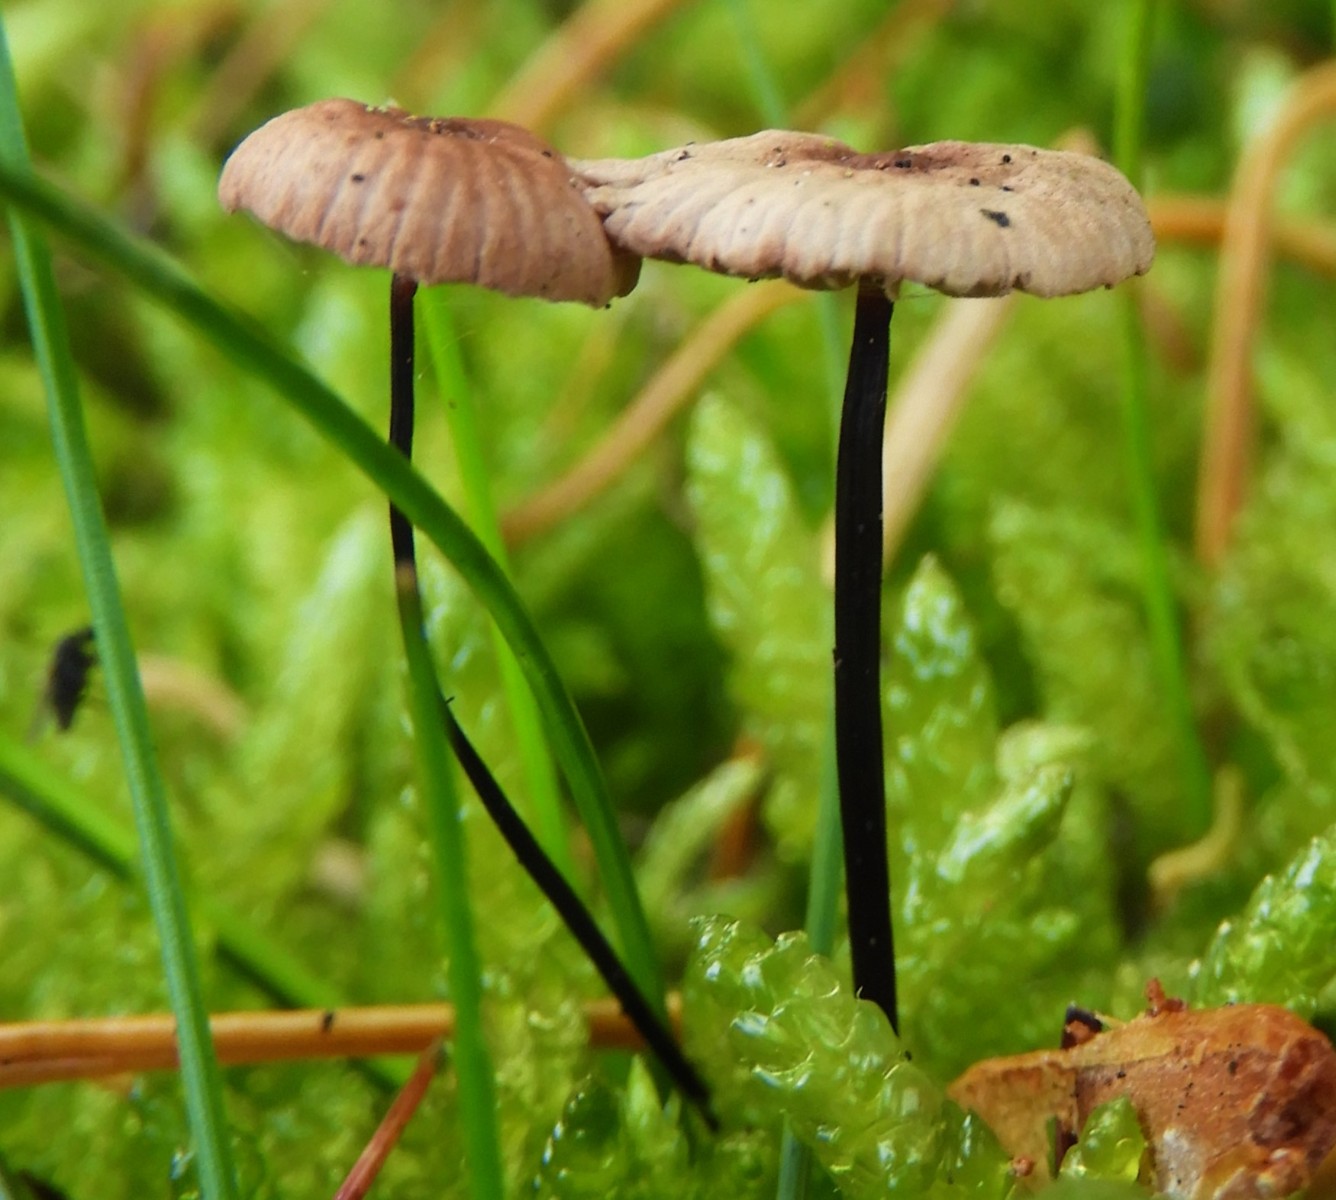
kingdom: Fungi
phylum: Basidiomycota
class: Agaricomycetes
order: Agaricales
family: Omphalotaceae
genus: Gymnopus
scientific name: Gymnopus androsaceus
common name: trådstokket fladhat
